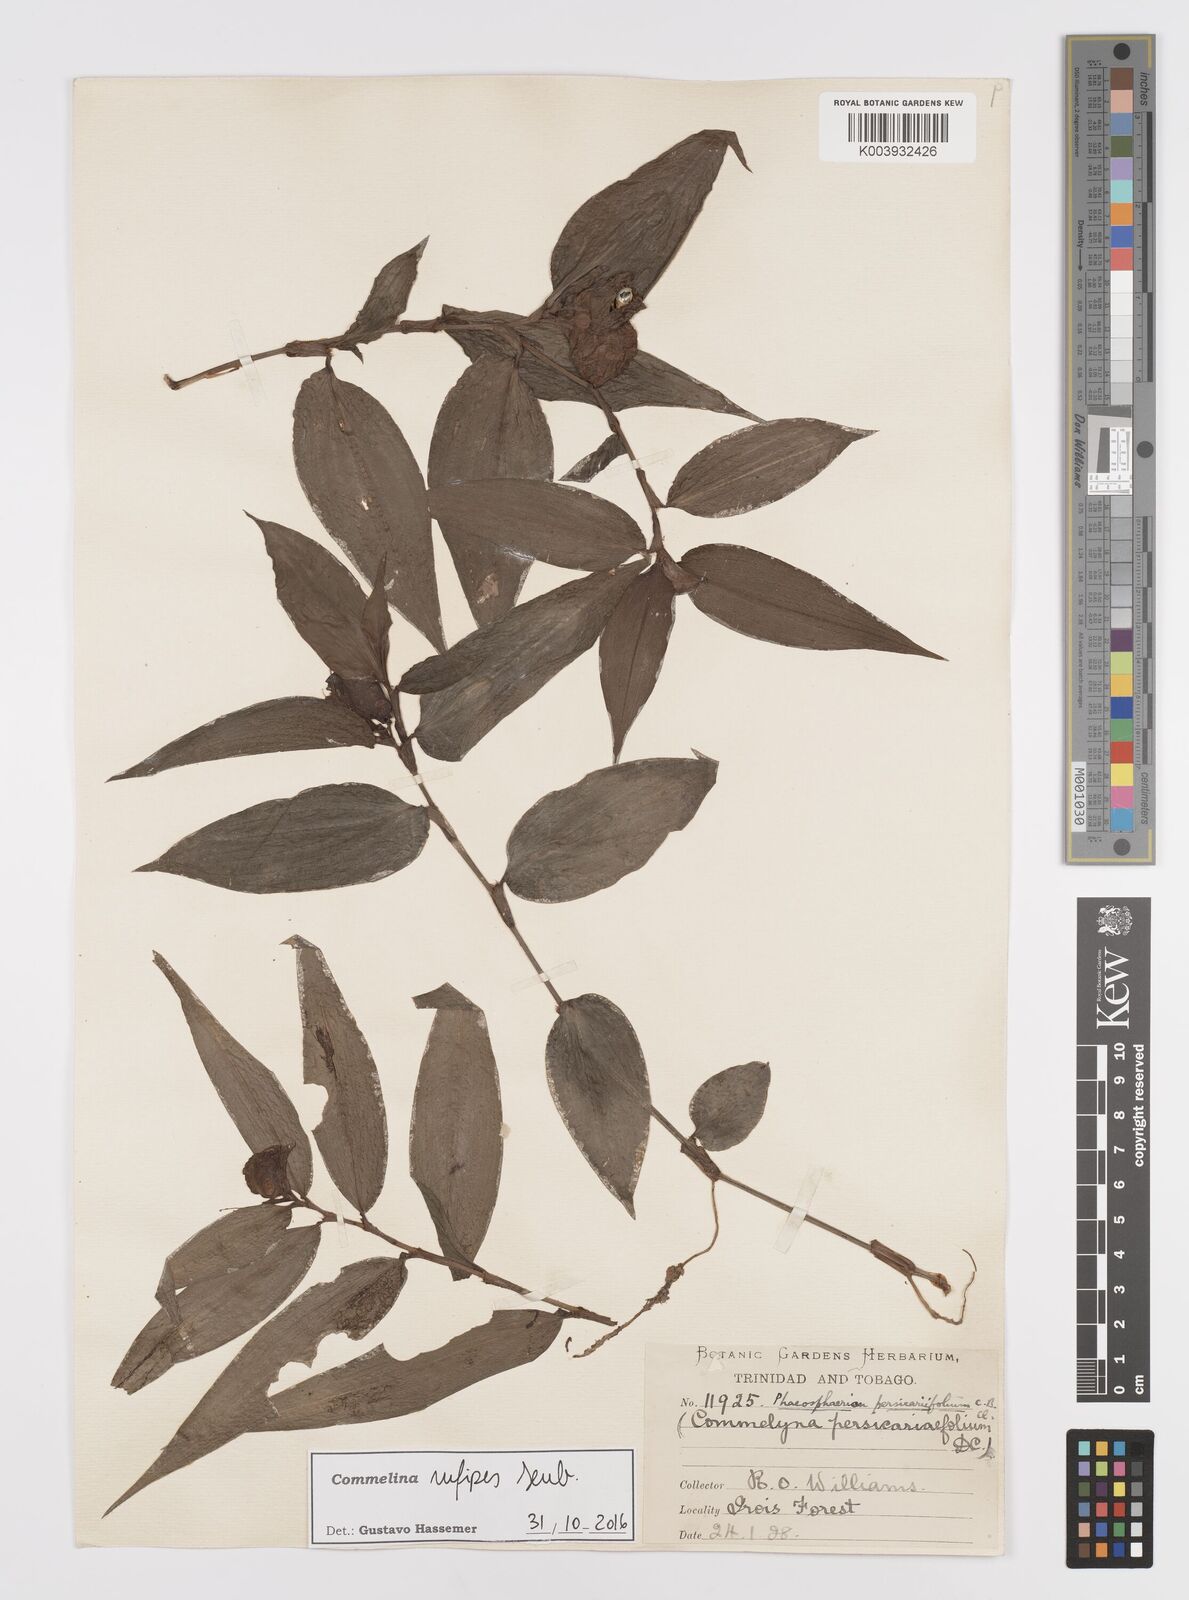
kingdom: Plantae
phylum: Tracheophyta
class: Liliopsida
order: Commelinales
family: Commelinaceae
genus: Commelina
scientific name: Commelina rufipes
